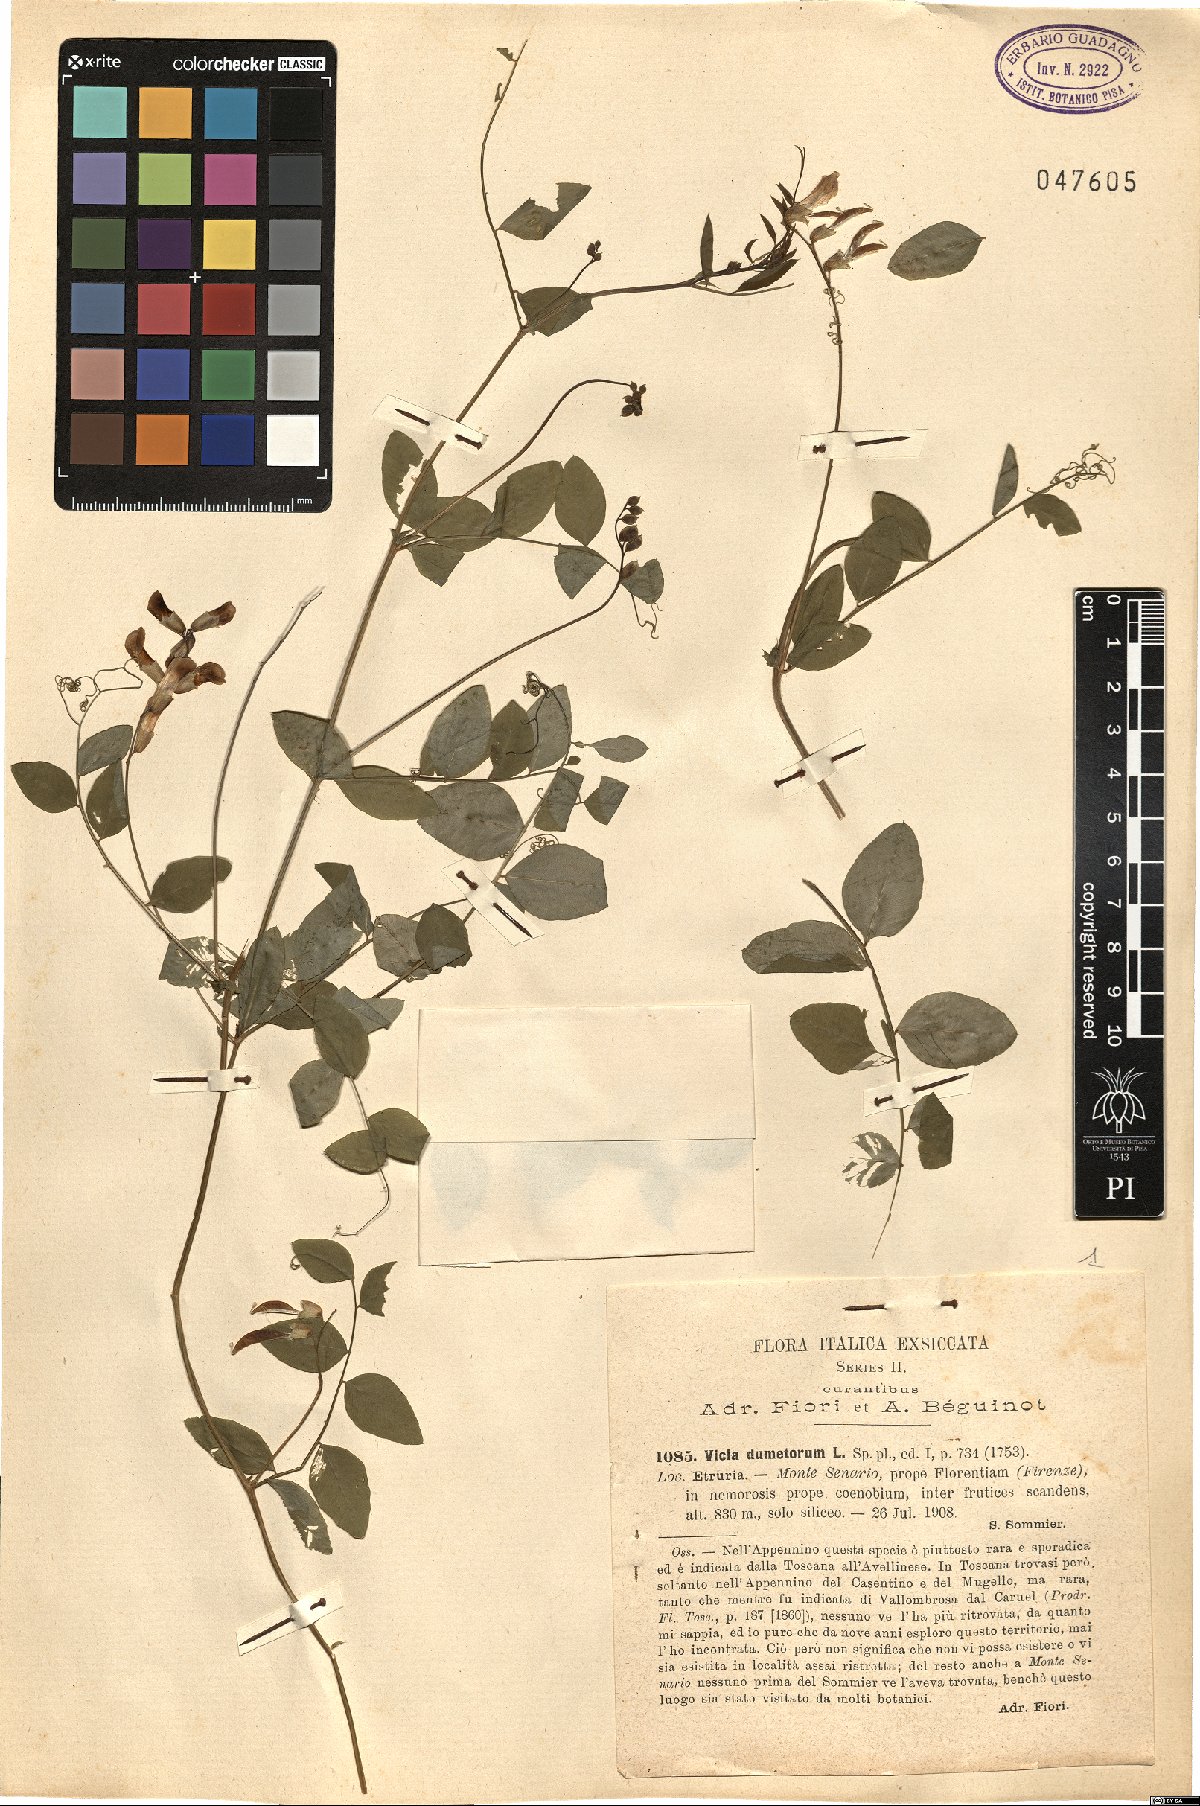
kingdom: Plantae
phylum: Tracheophyta
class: Magnoliopsida
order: Fabales
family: Fabaceae
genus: Vicia
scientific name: Vicia dumetorum
